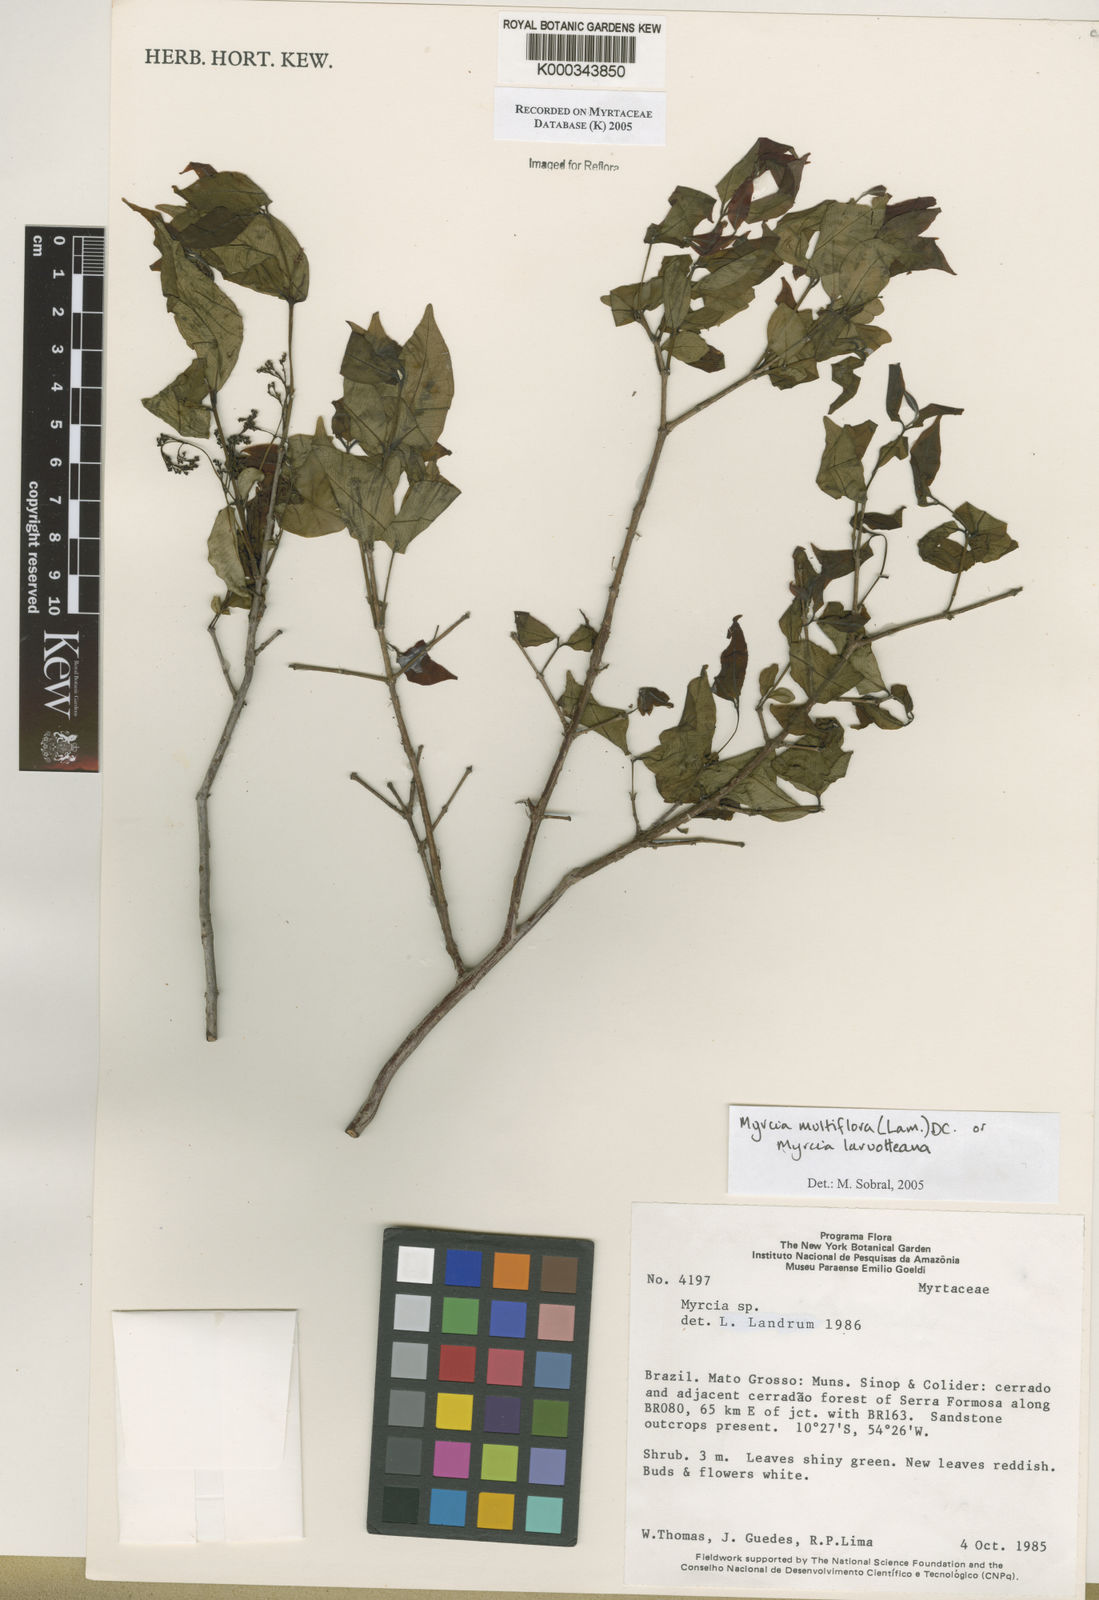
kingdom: Plantae
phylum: Tracheophyta
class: Magnoliopsida
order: Myrtales
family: Myrtaceae
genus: Myrcia
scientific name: Myrcia multiflora
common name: Pedra hume
